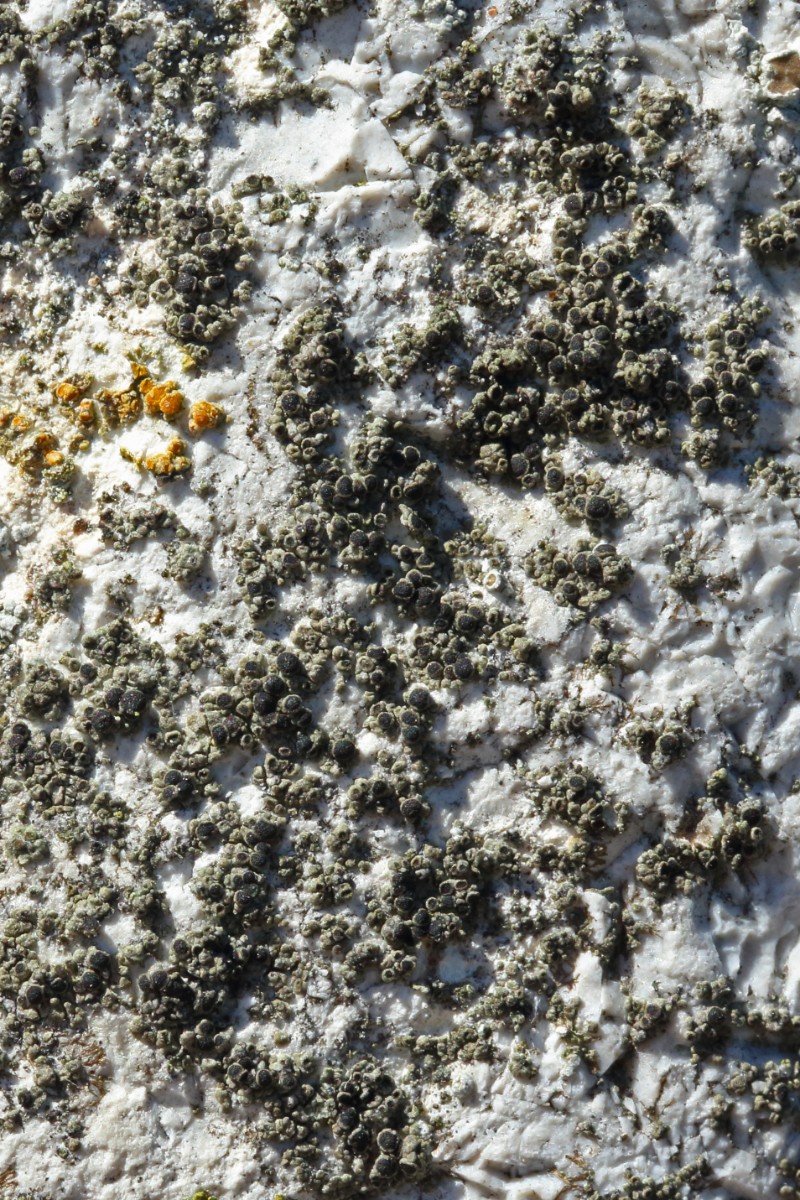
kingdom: Fungi
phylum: Ascomycota
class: Lecanoromycetes
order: Caliciales
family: Physciaceae
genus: Rinodina
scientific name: Rinodina oleae
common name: kyst-knaplav
